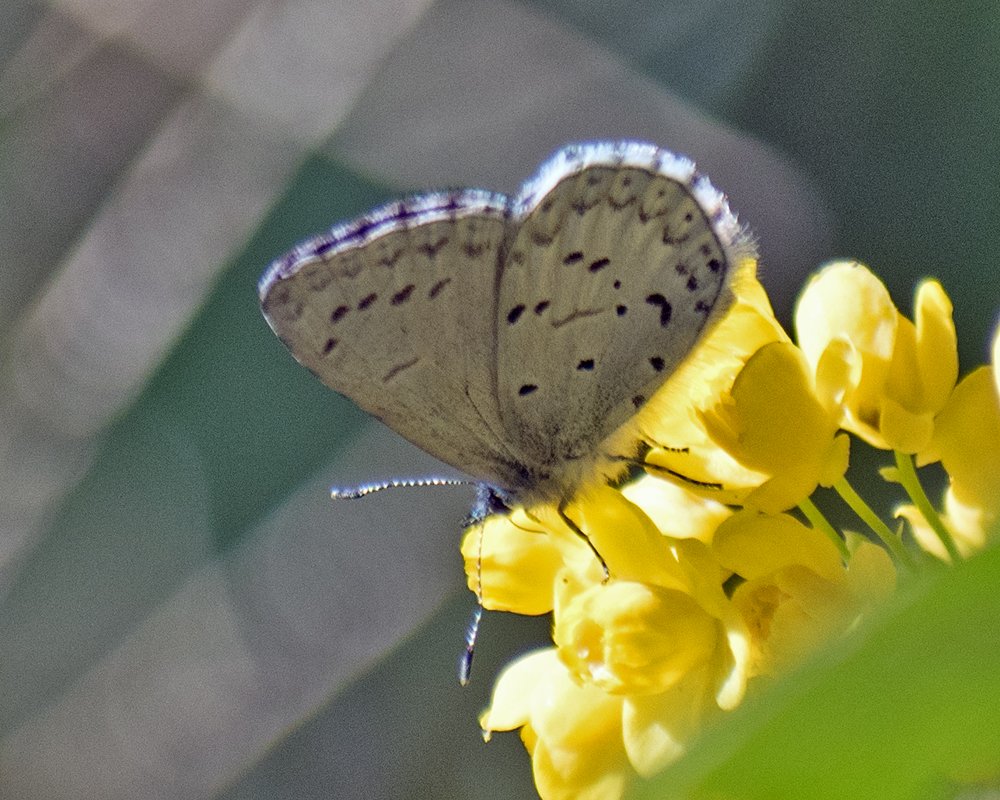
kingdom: Animalia
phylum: Arthropoda
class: Insecta
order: Lepidoptera
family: Lycaenidae
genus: Celastrina
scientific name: Celastrina ladon
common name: Echo Azure
